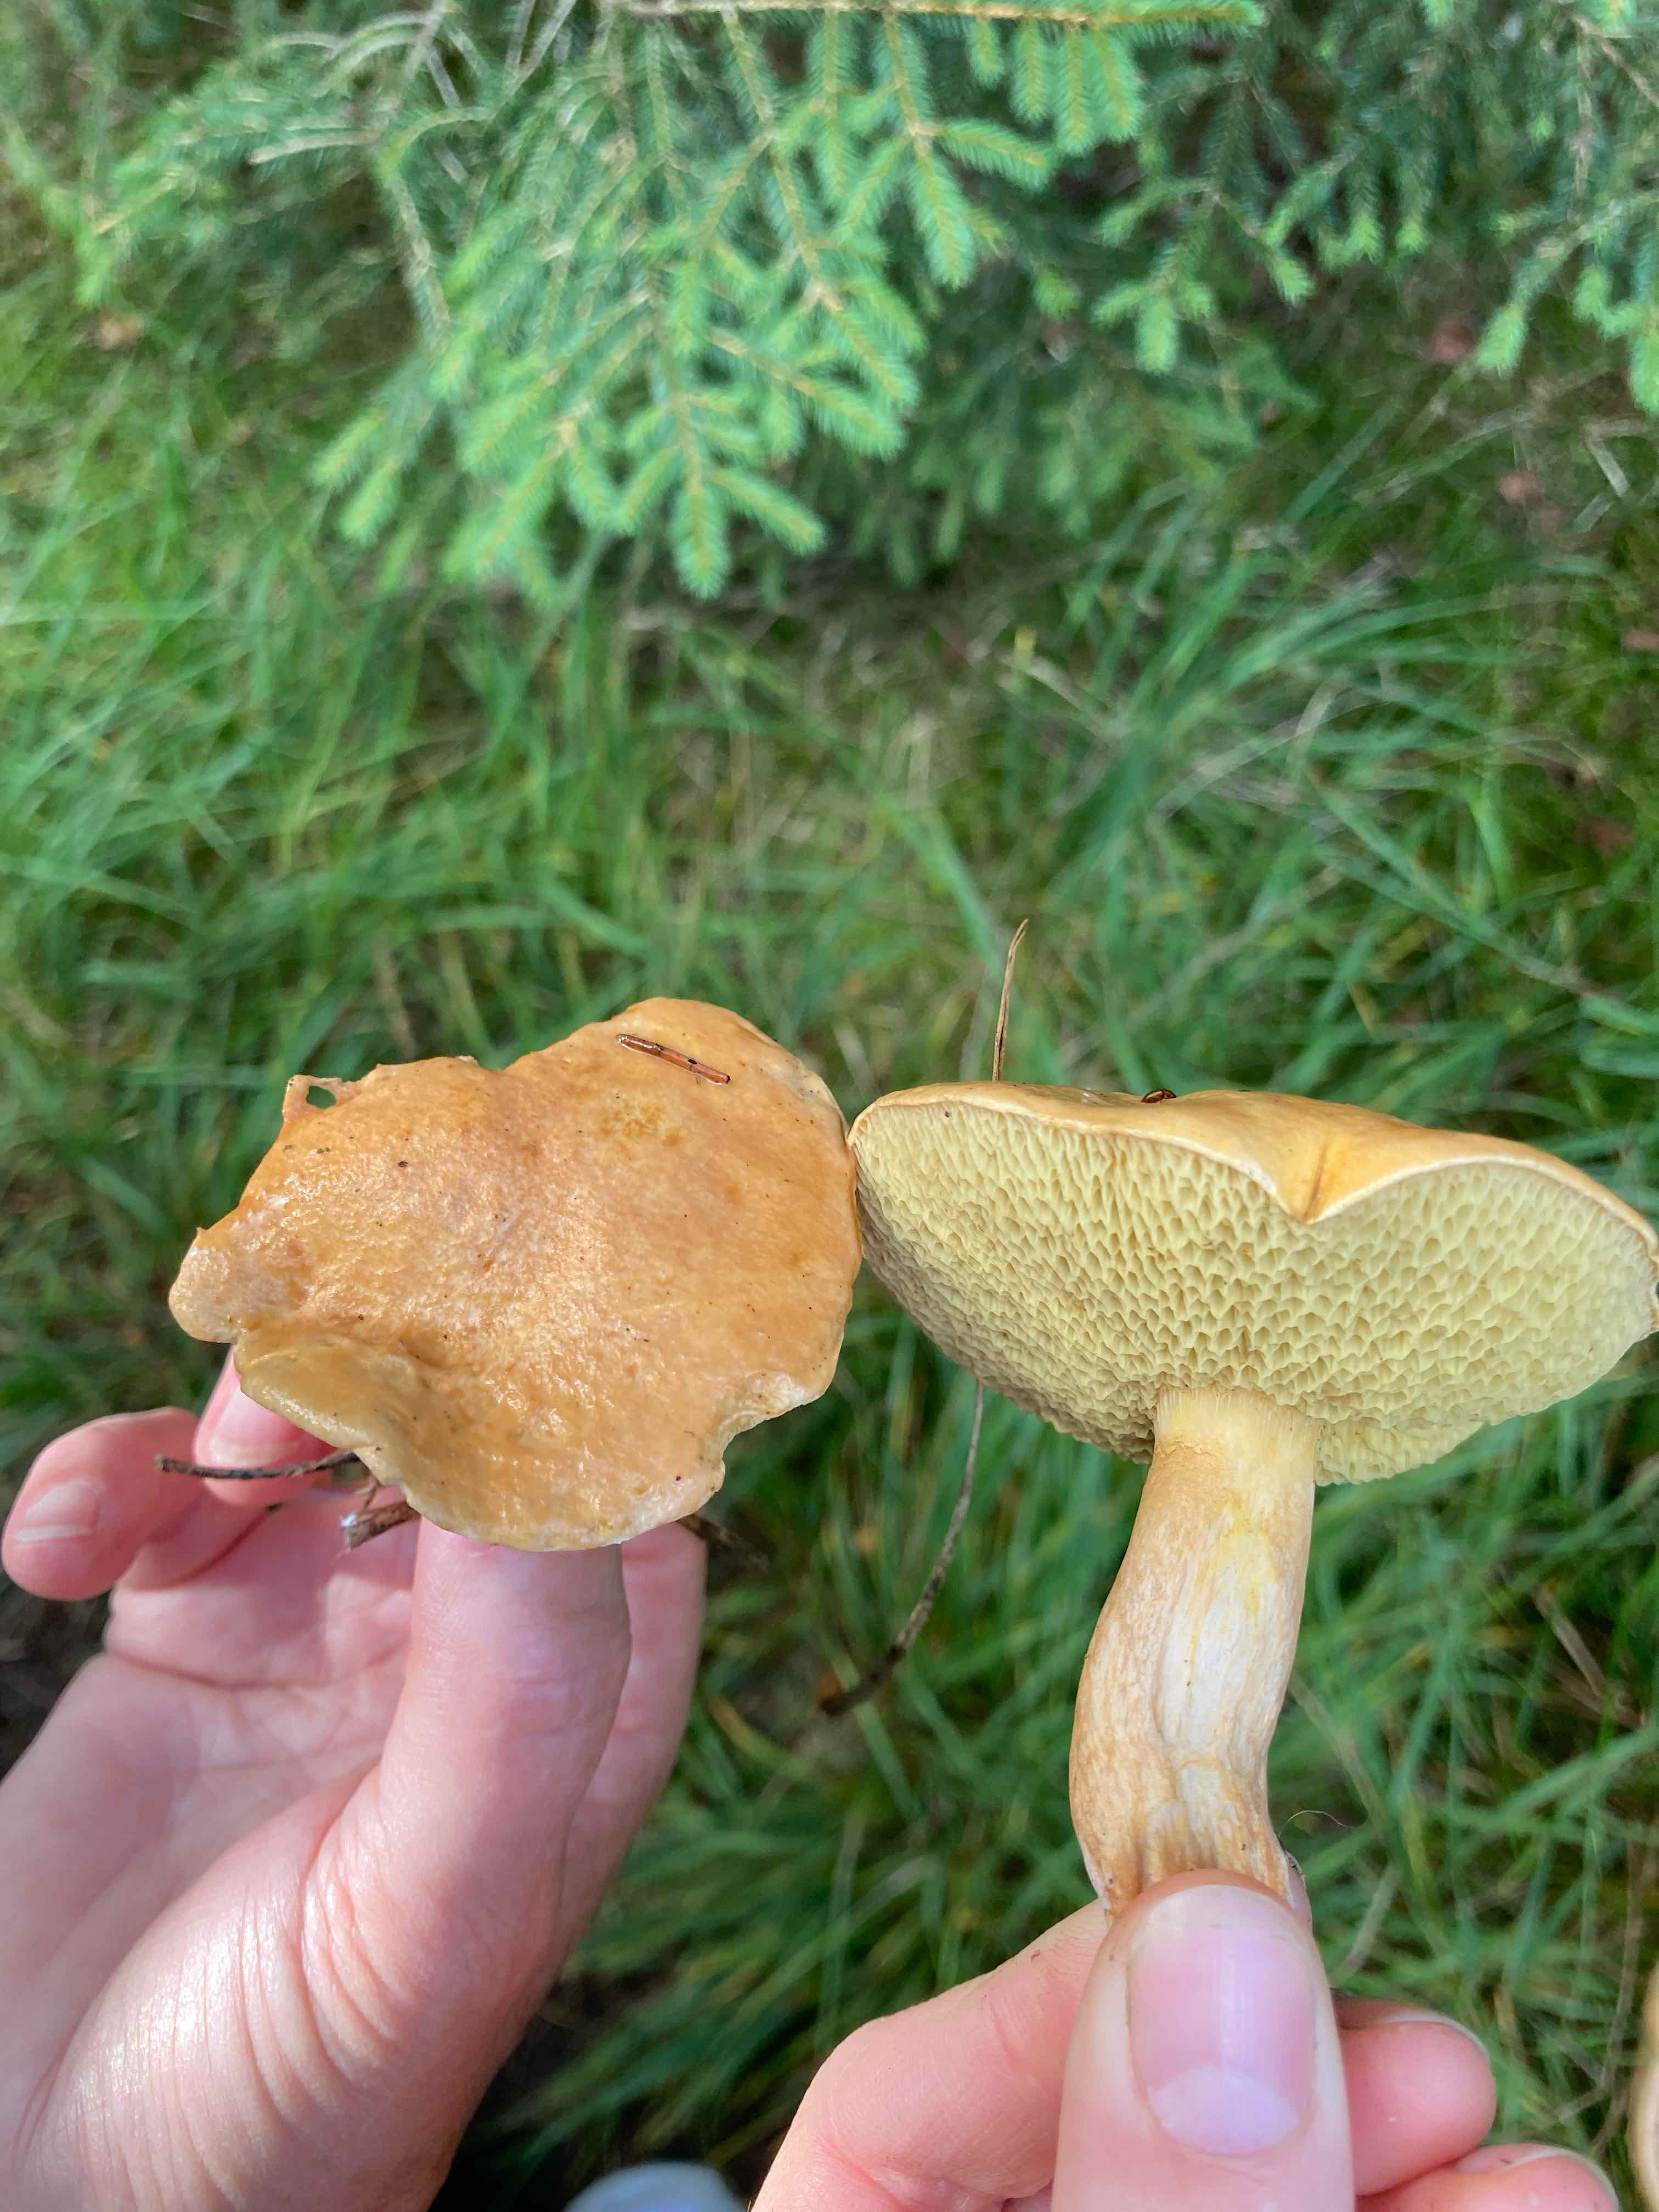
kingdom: Fungi
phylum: Basidiomycota
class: Agaricomycetes
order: Boletales
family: Suillaceae
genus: Suillus
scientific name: Suillus bovinus
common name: grovporet slimrørhat
